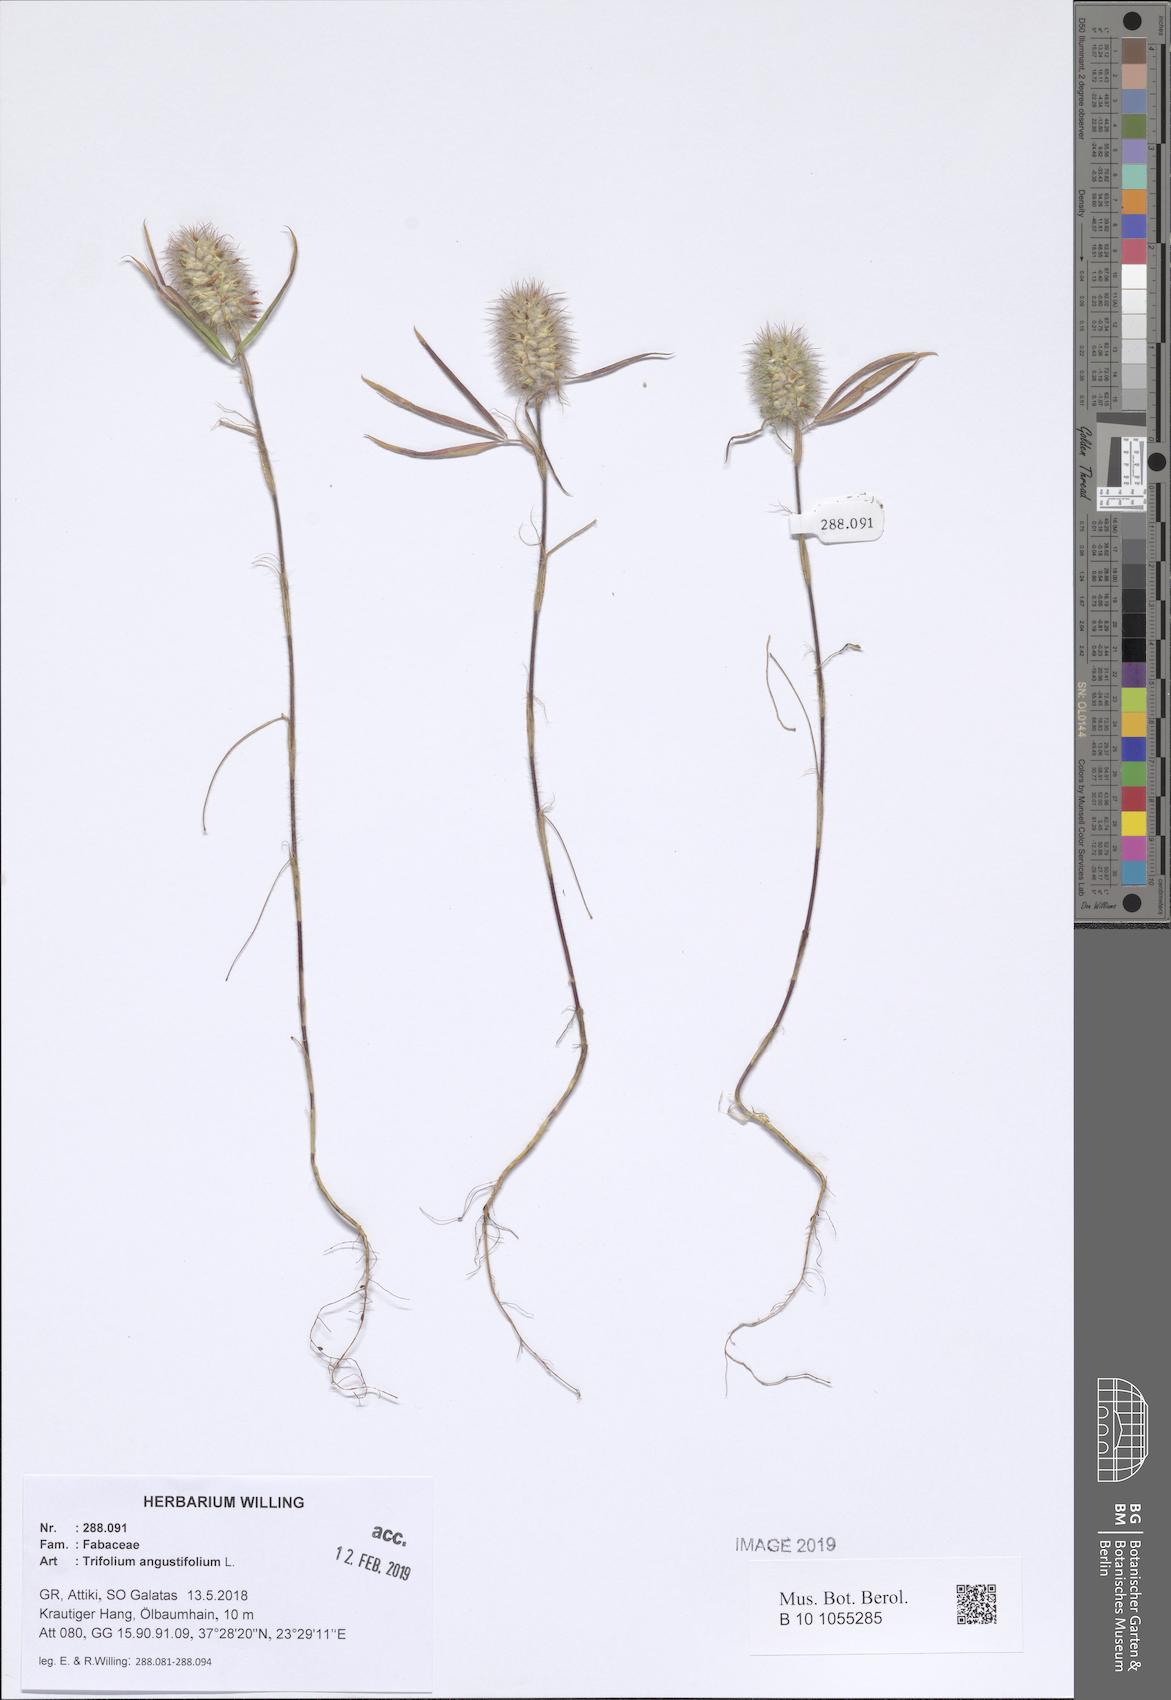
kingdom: Plantae
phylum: Tracheophyta
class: Magnoliopsida
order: Fabales
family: Fabaceae
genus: Trifolium
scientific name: Trifolium angustifolium
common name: Narrow clover
